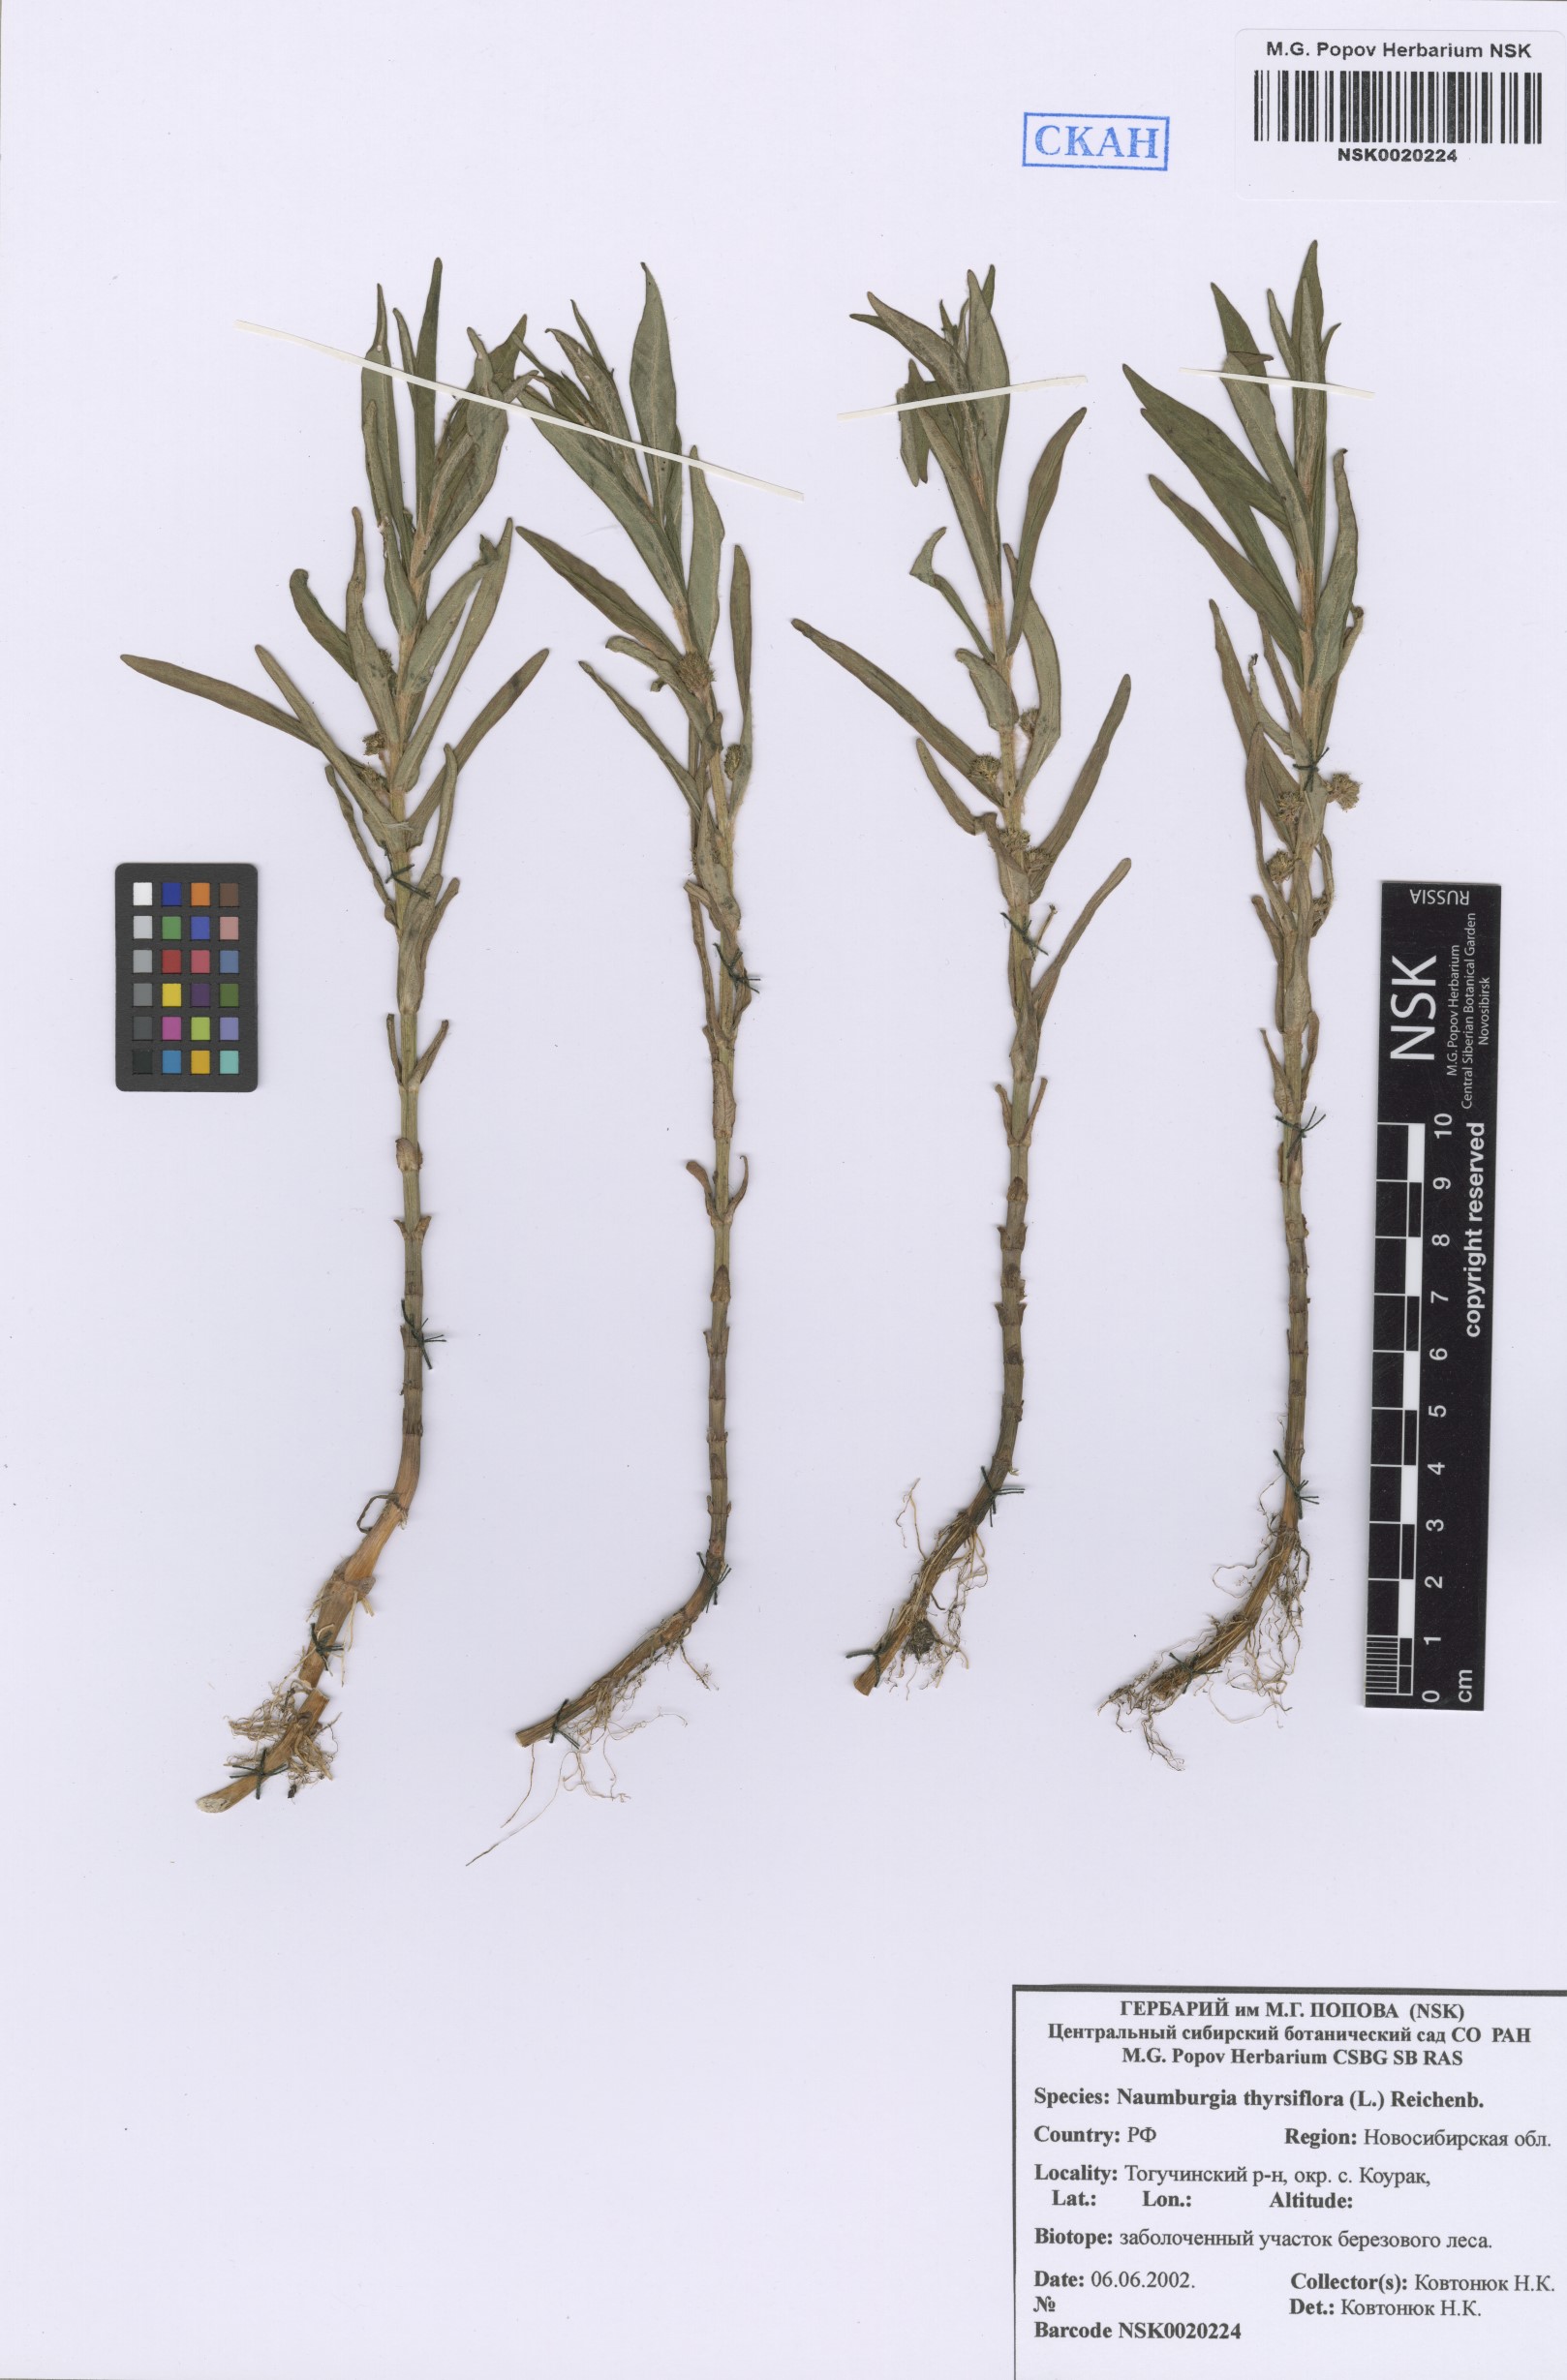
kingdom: Plantae
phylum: Tracheophyta
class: Magnoliopsida
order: Ericales
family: Primulaceae
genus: Lysimachia
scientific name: Lysimachia thyrsiflora
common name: Tufted loosestrife
